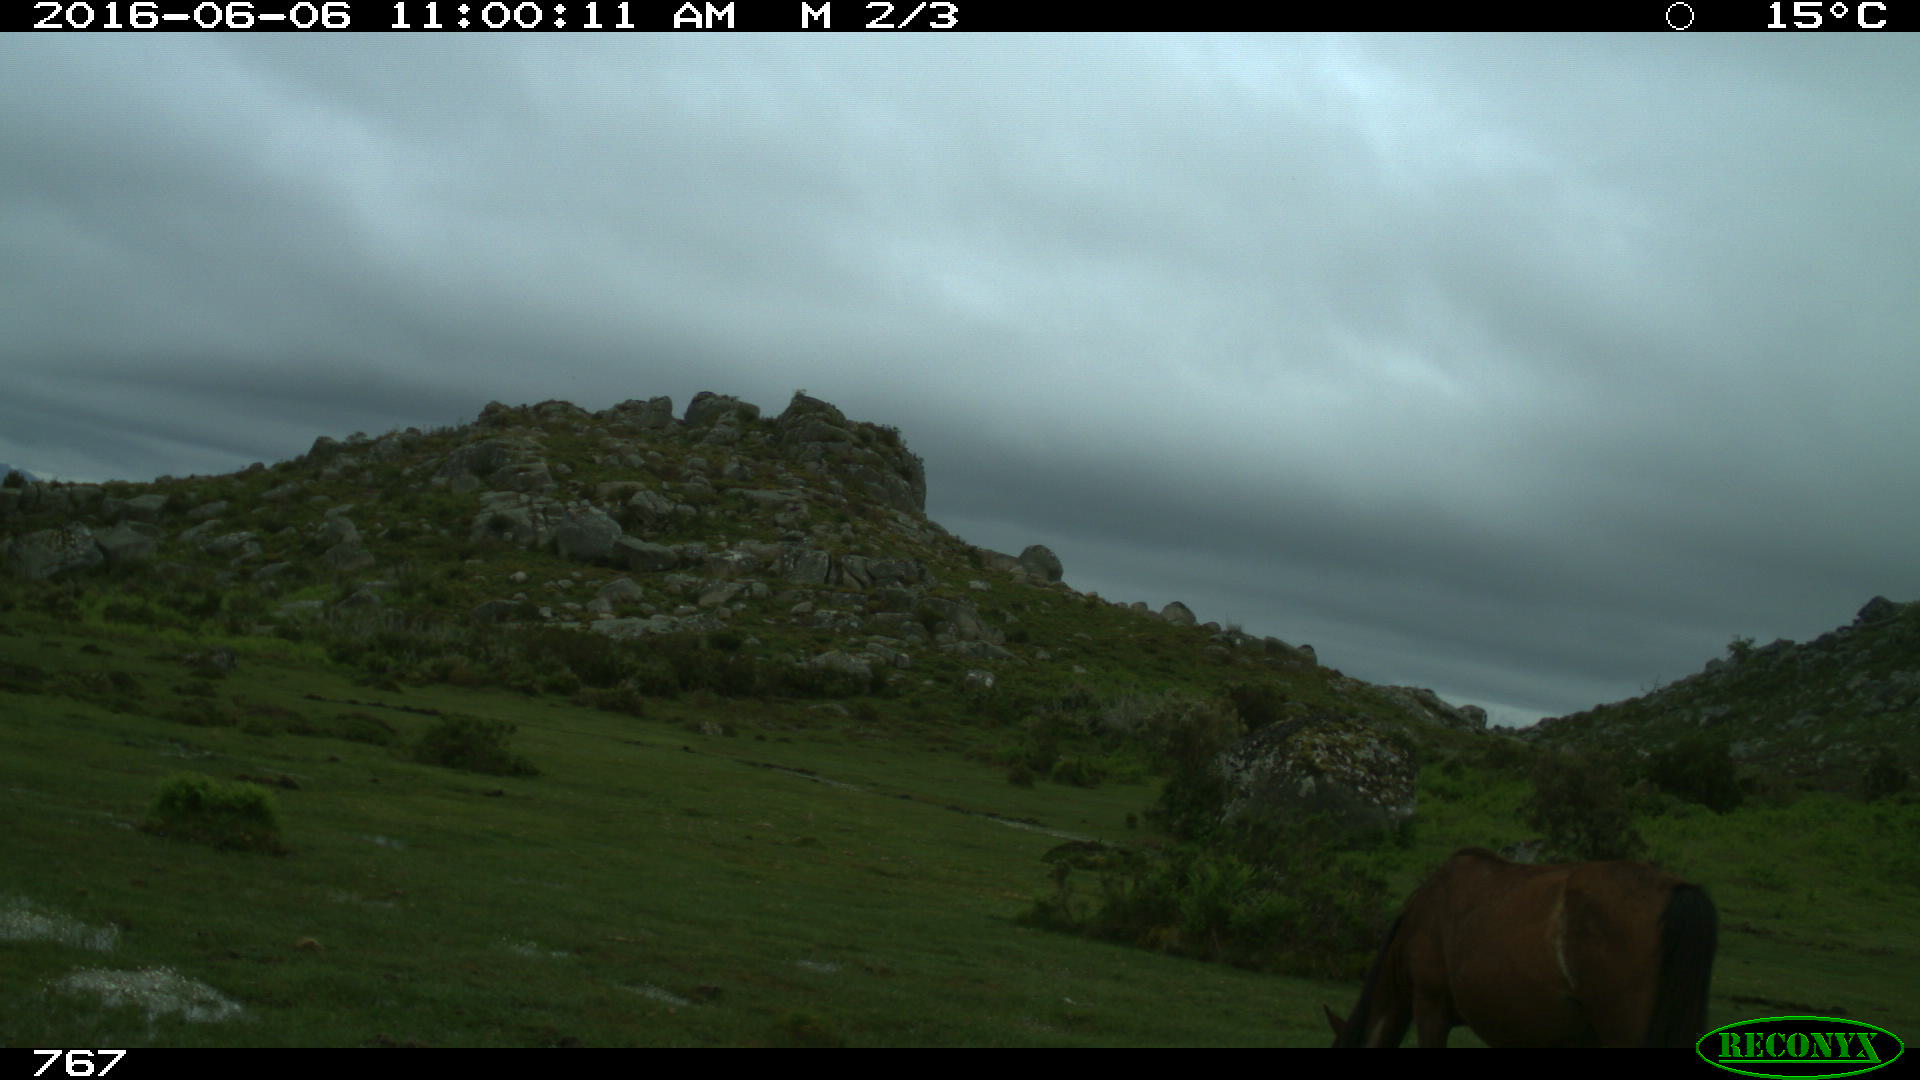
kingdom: Animalia
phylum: Chordata
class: Mammalia
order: Perissodactyla
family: Equidae
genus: Equus
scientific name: Equus caballus
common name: Horse
